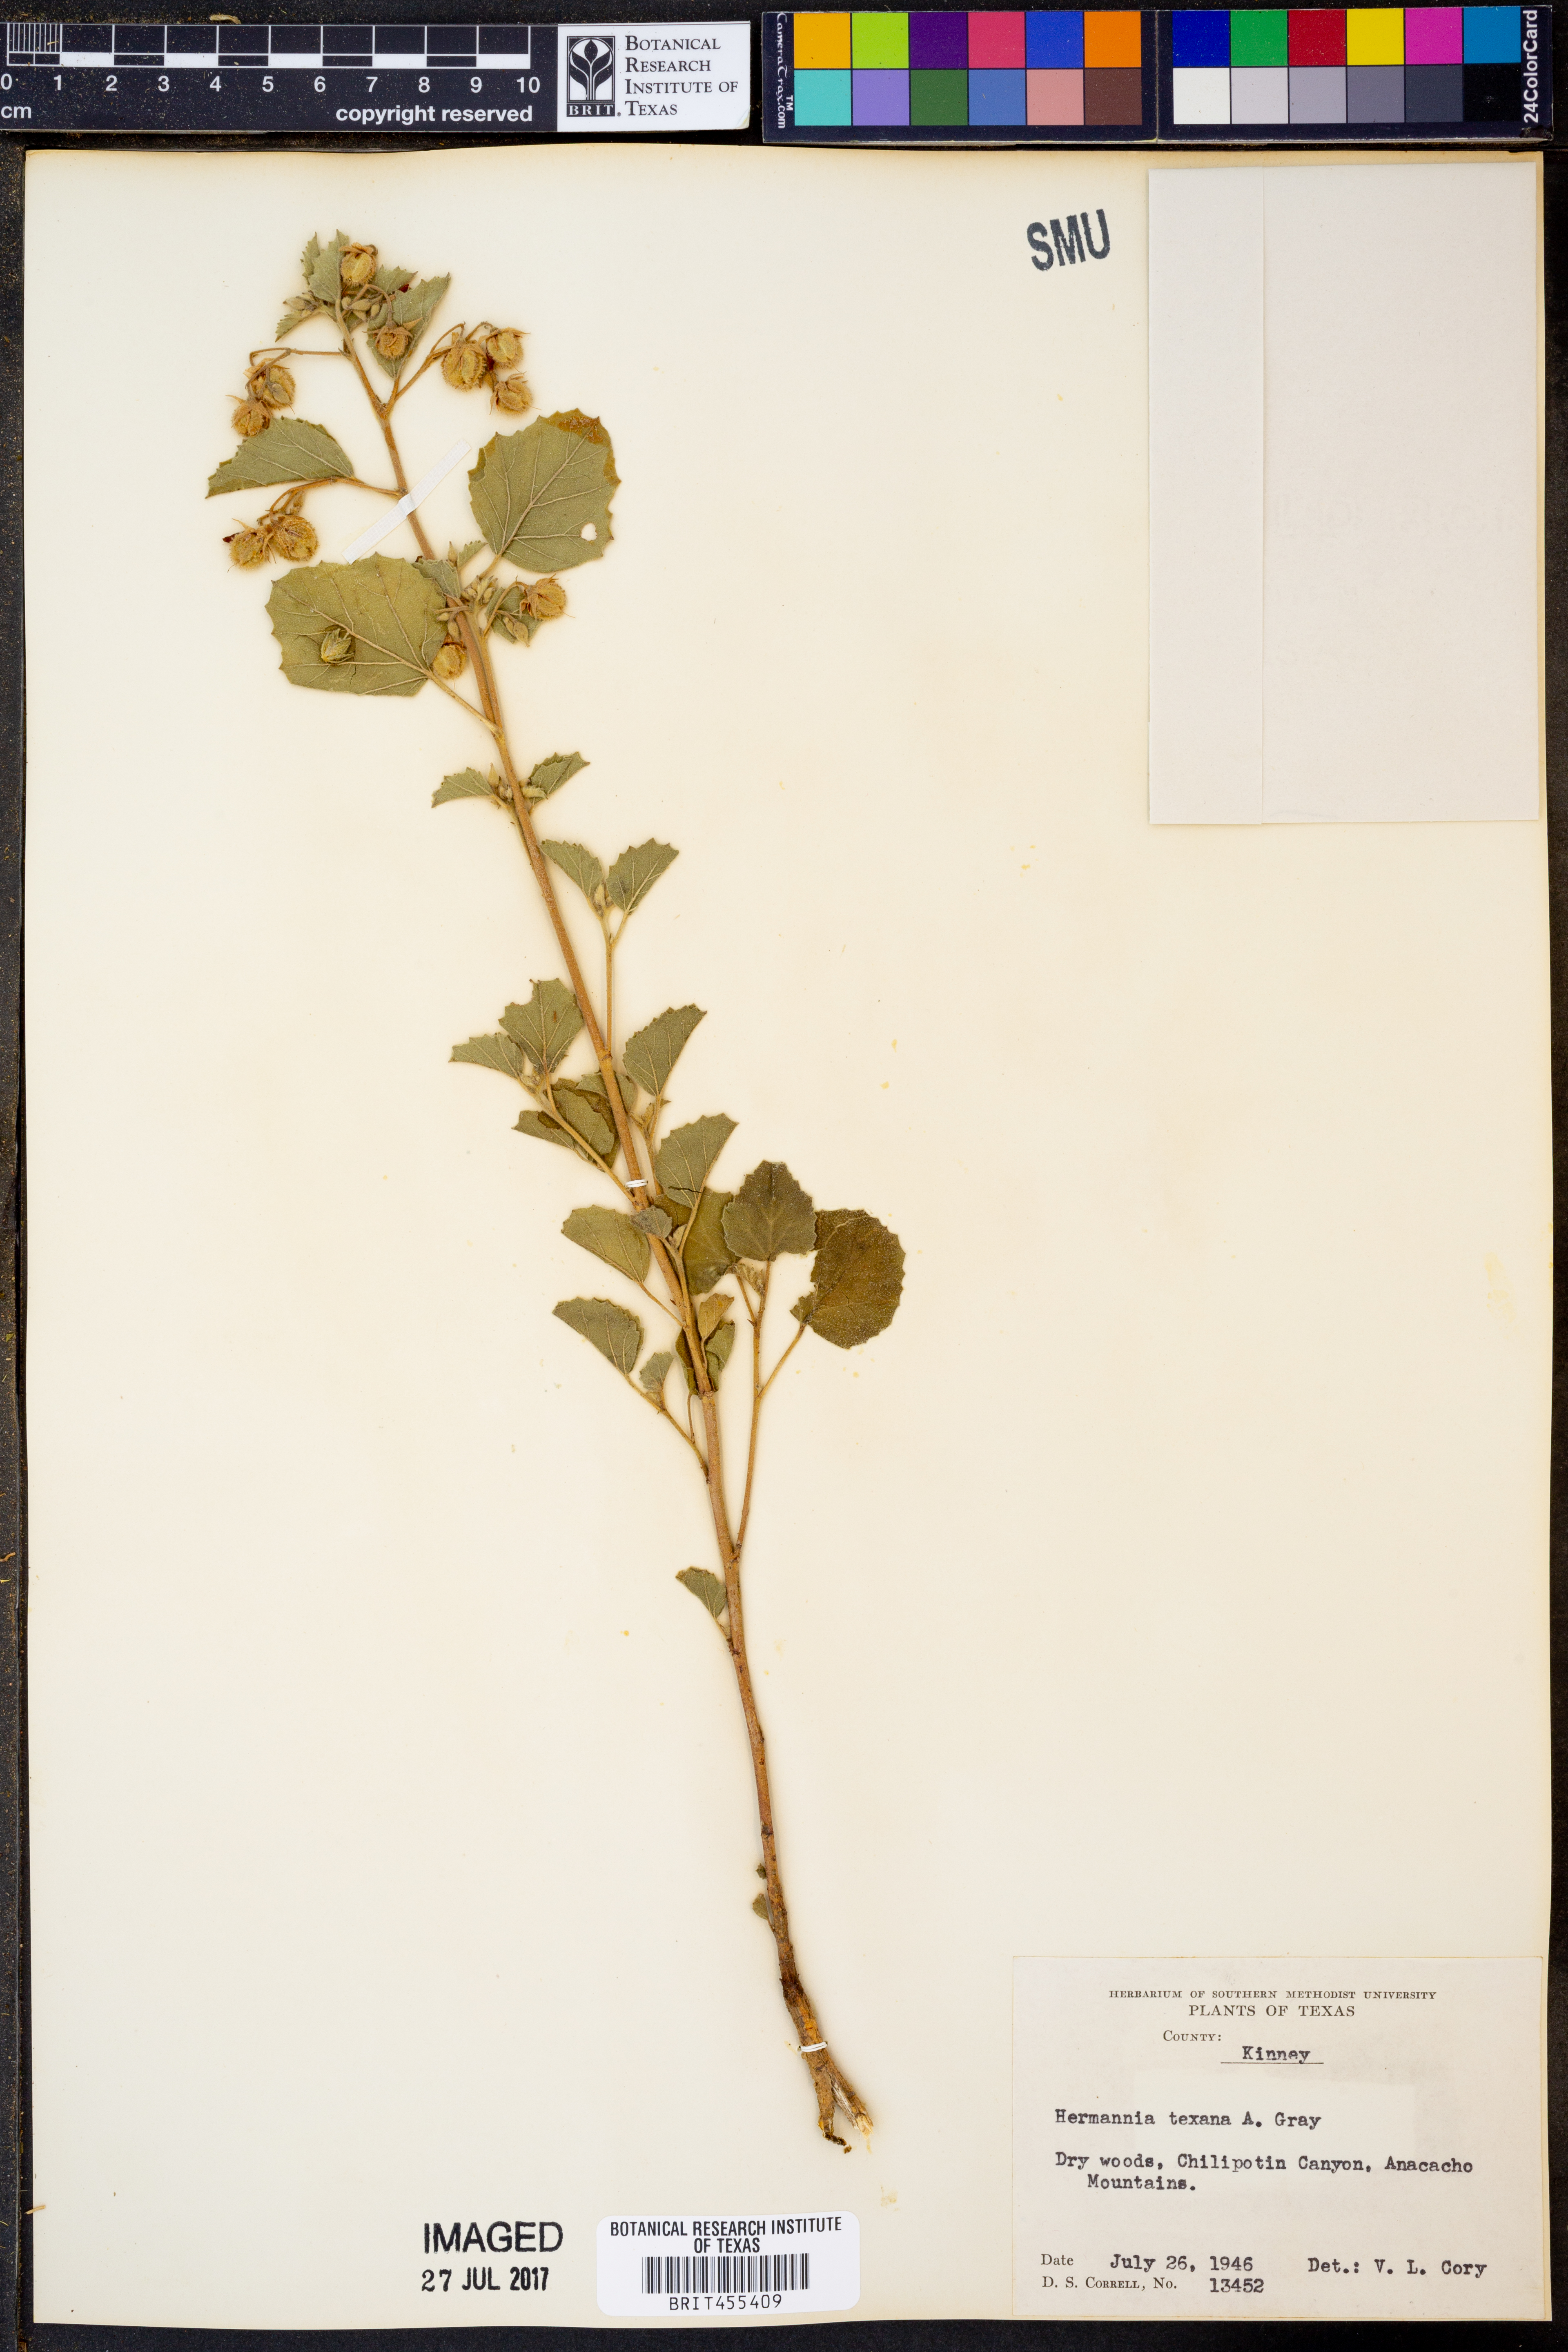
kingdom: Plantae
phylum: Tracheophyta
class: Magnoliopsida
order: Malvales
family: Malvaceae
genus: Hermannia
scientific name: Hermannia texana
